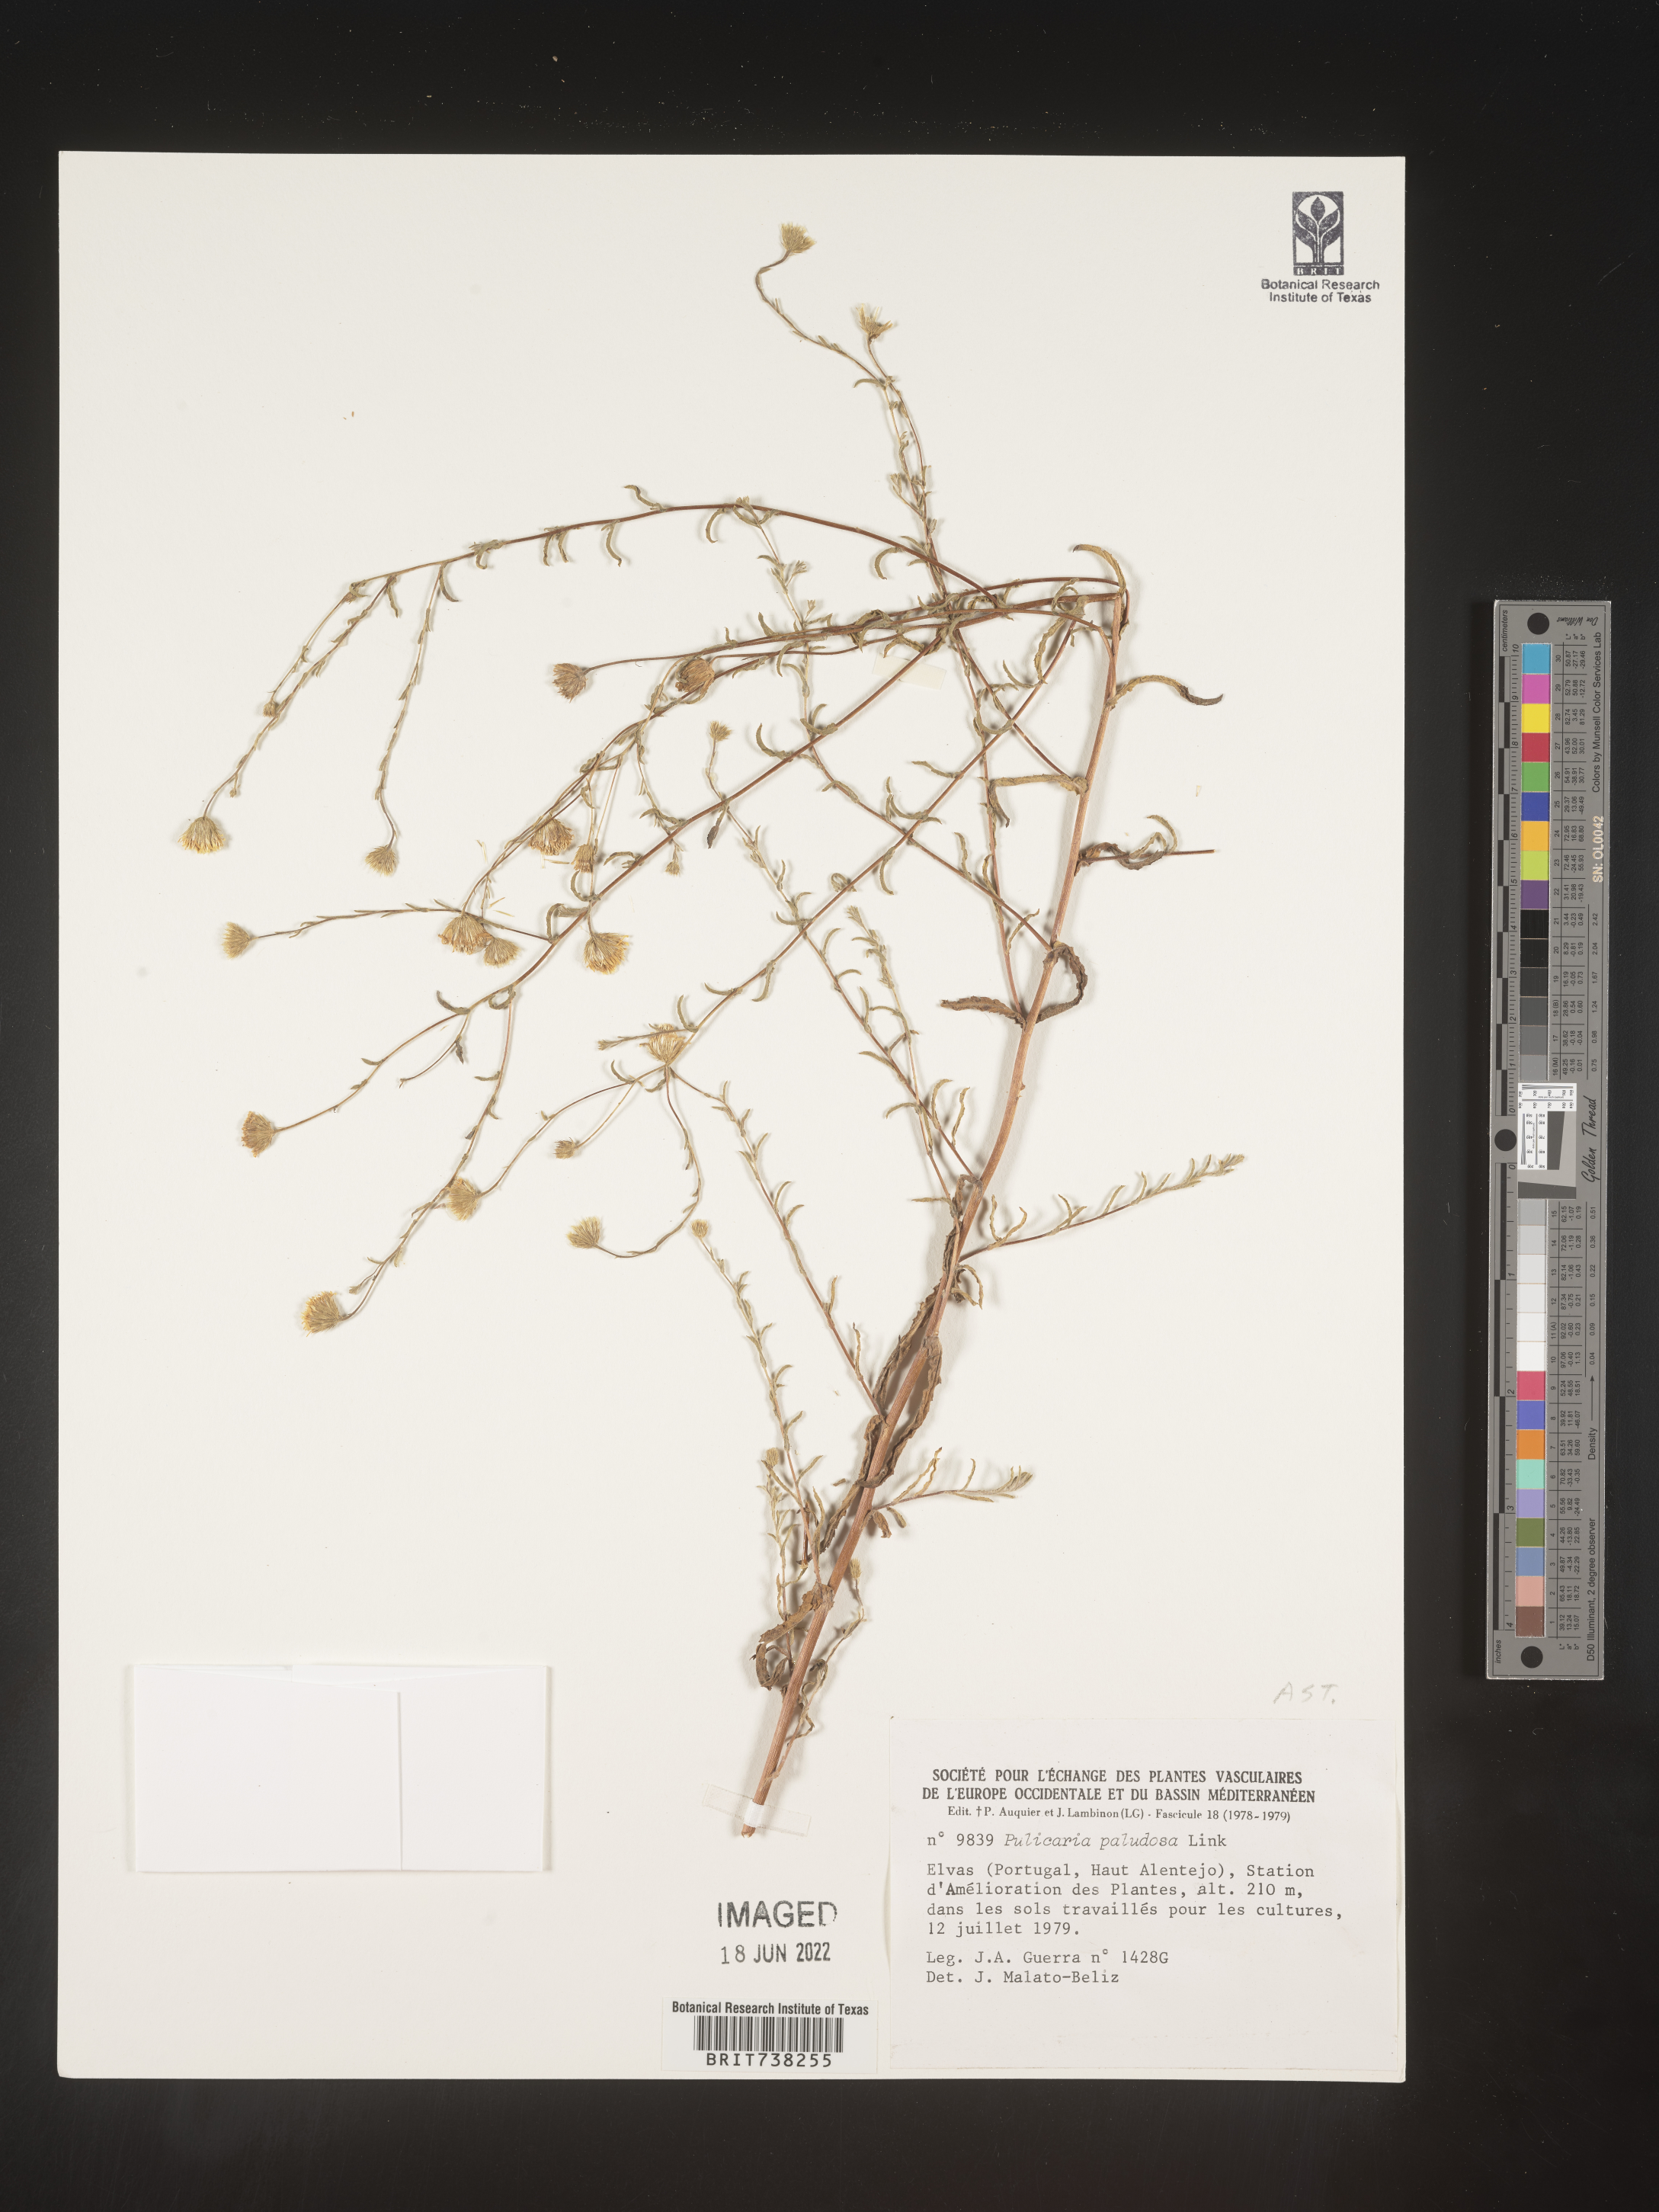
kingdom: Plantae
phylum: Tracheophyta
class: Magnoliopsida
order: Asterales
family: Asteraceae
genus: Pulicaria
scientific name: Pulicaria
